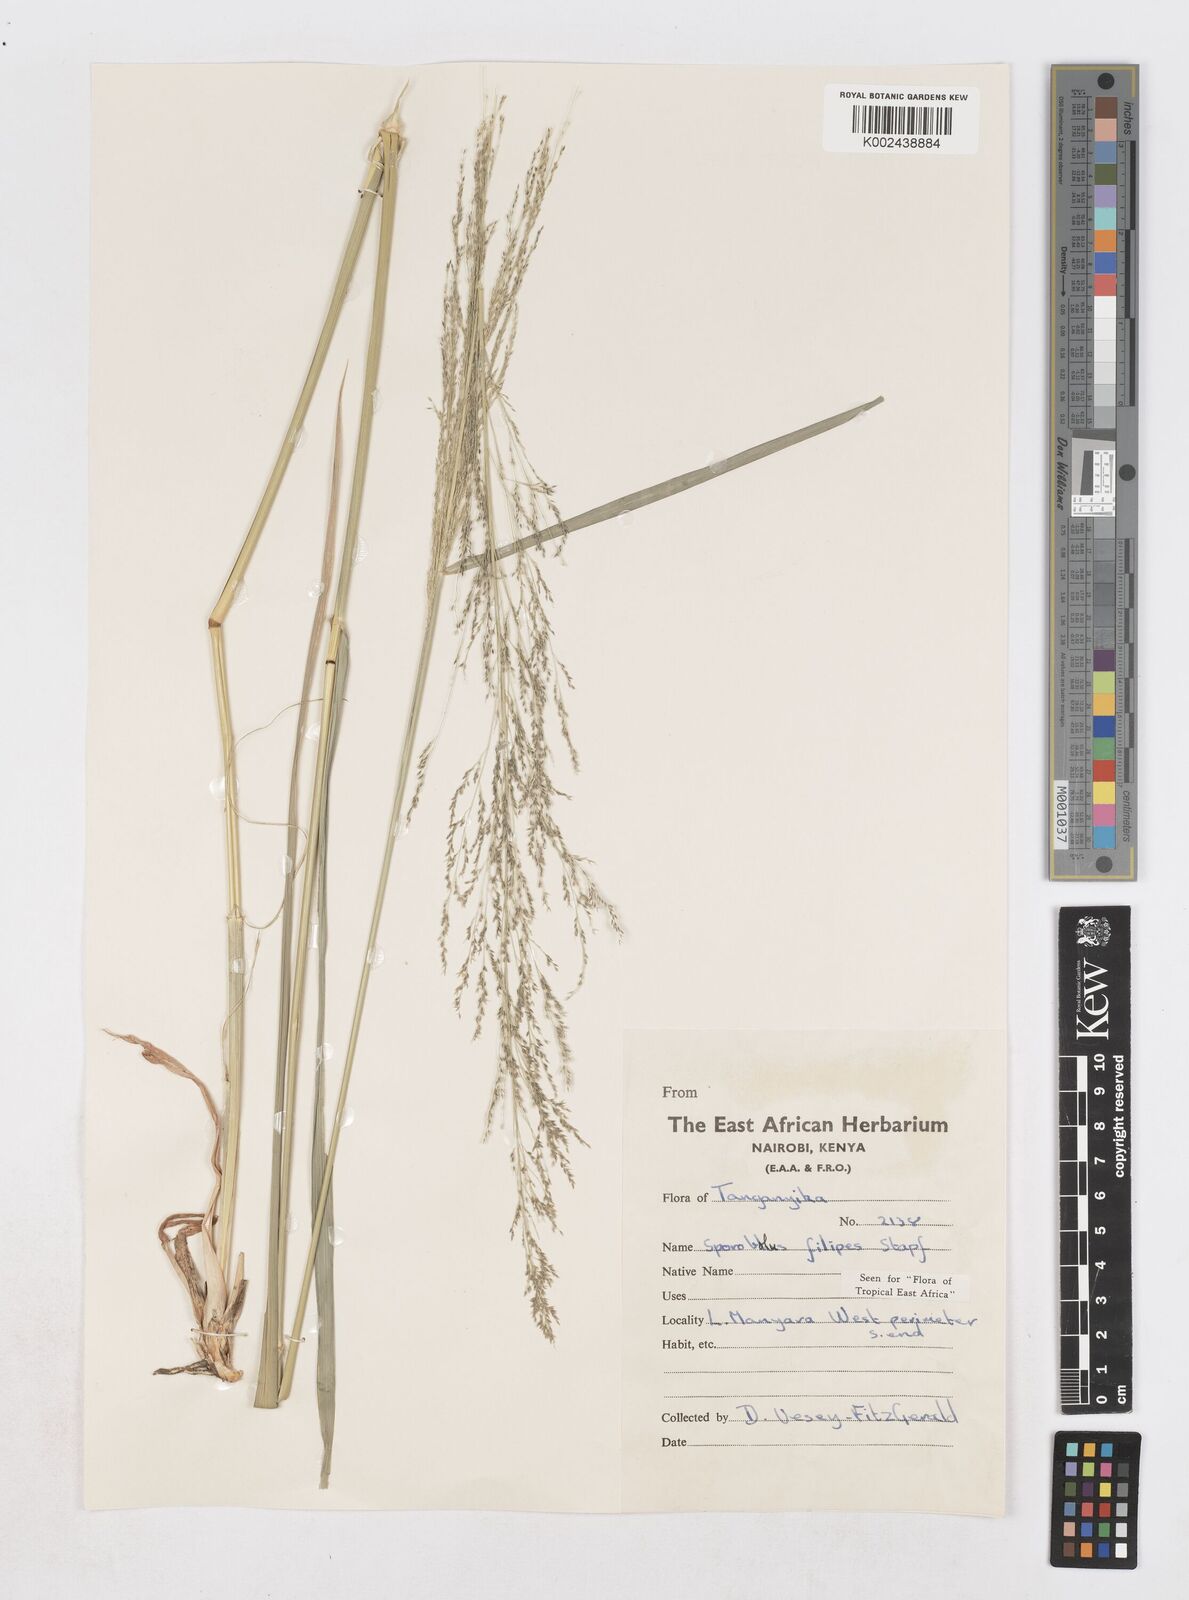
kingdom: Plantae
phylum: Tracheophyta
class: Liliopsida
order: Poales
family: Poaceae
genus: Sporobolus
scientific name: Sporobolus agrostoides
